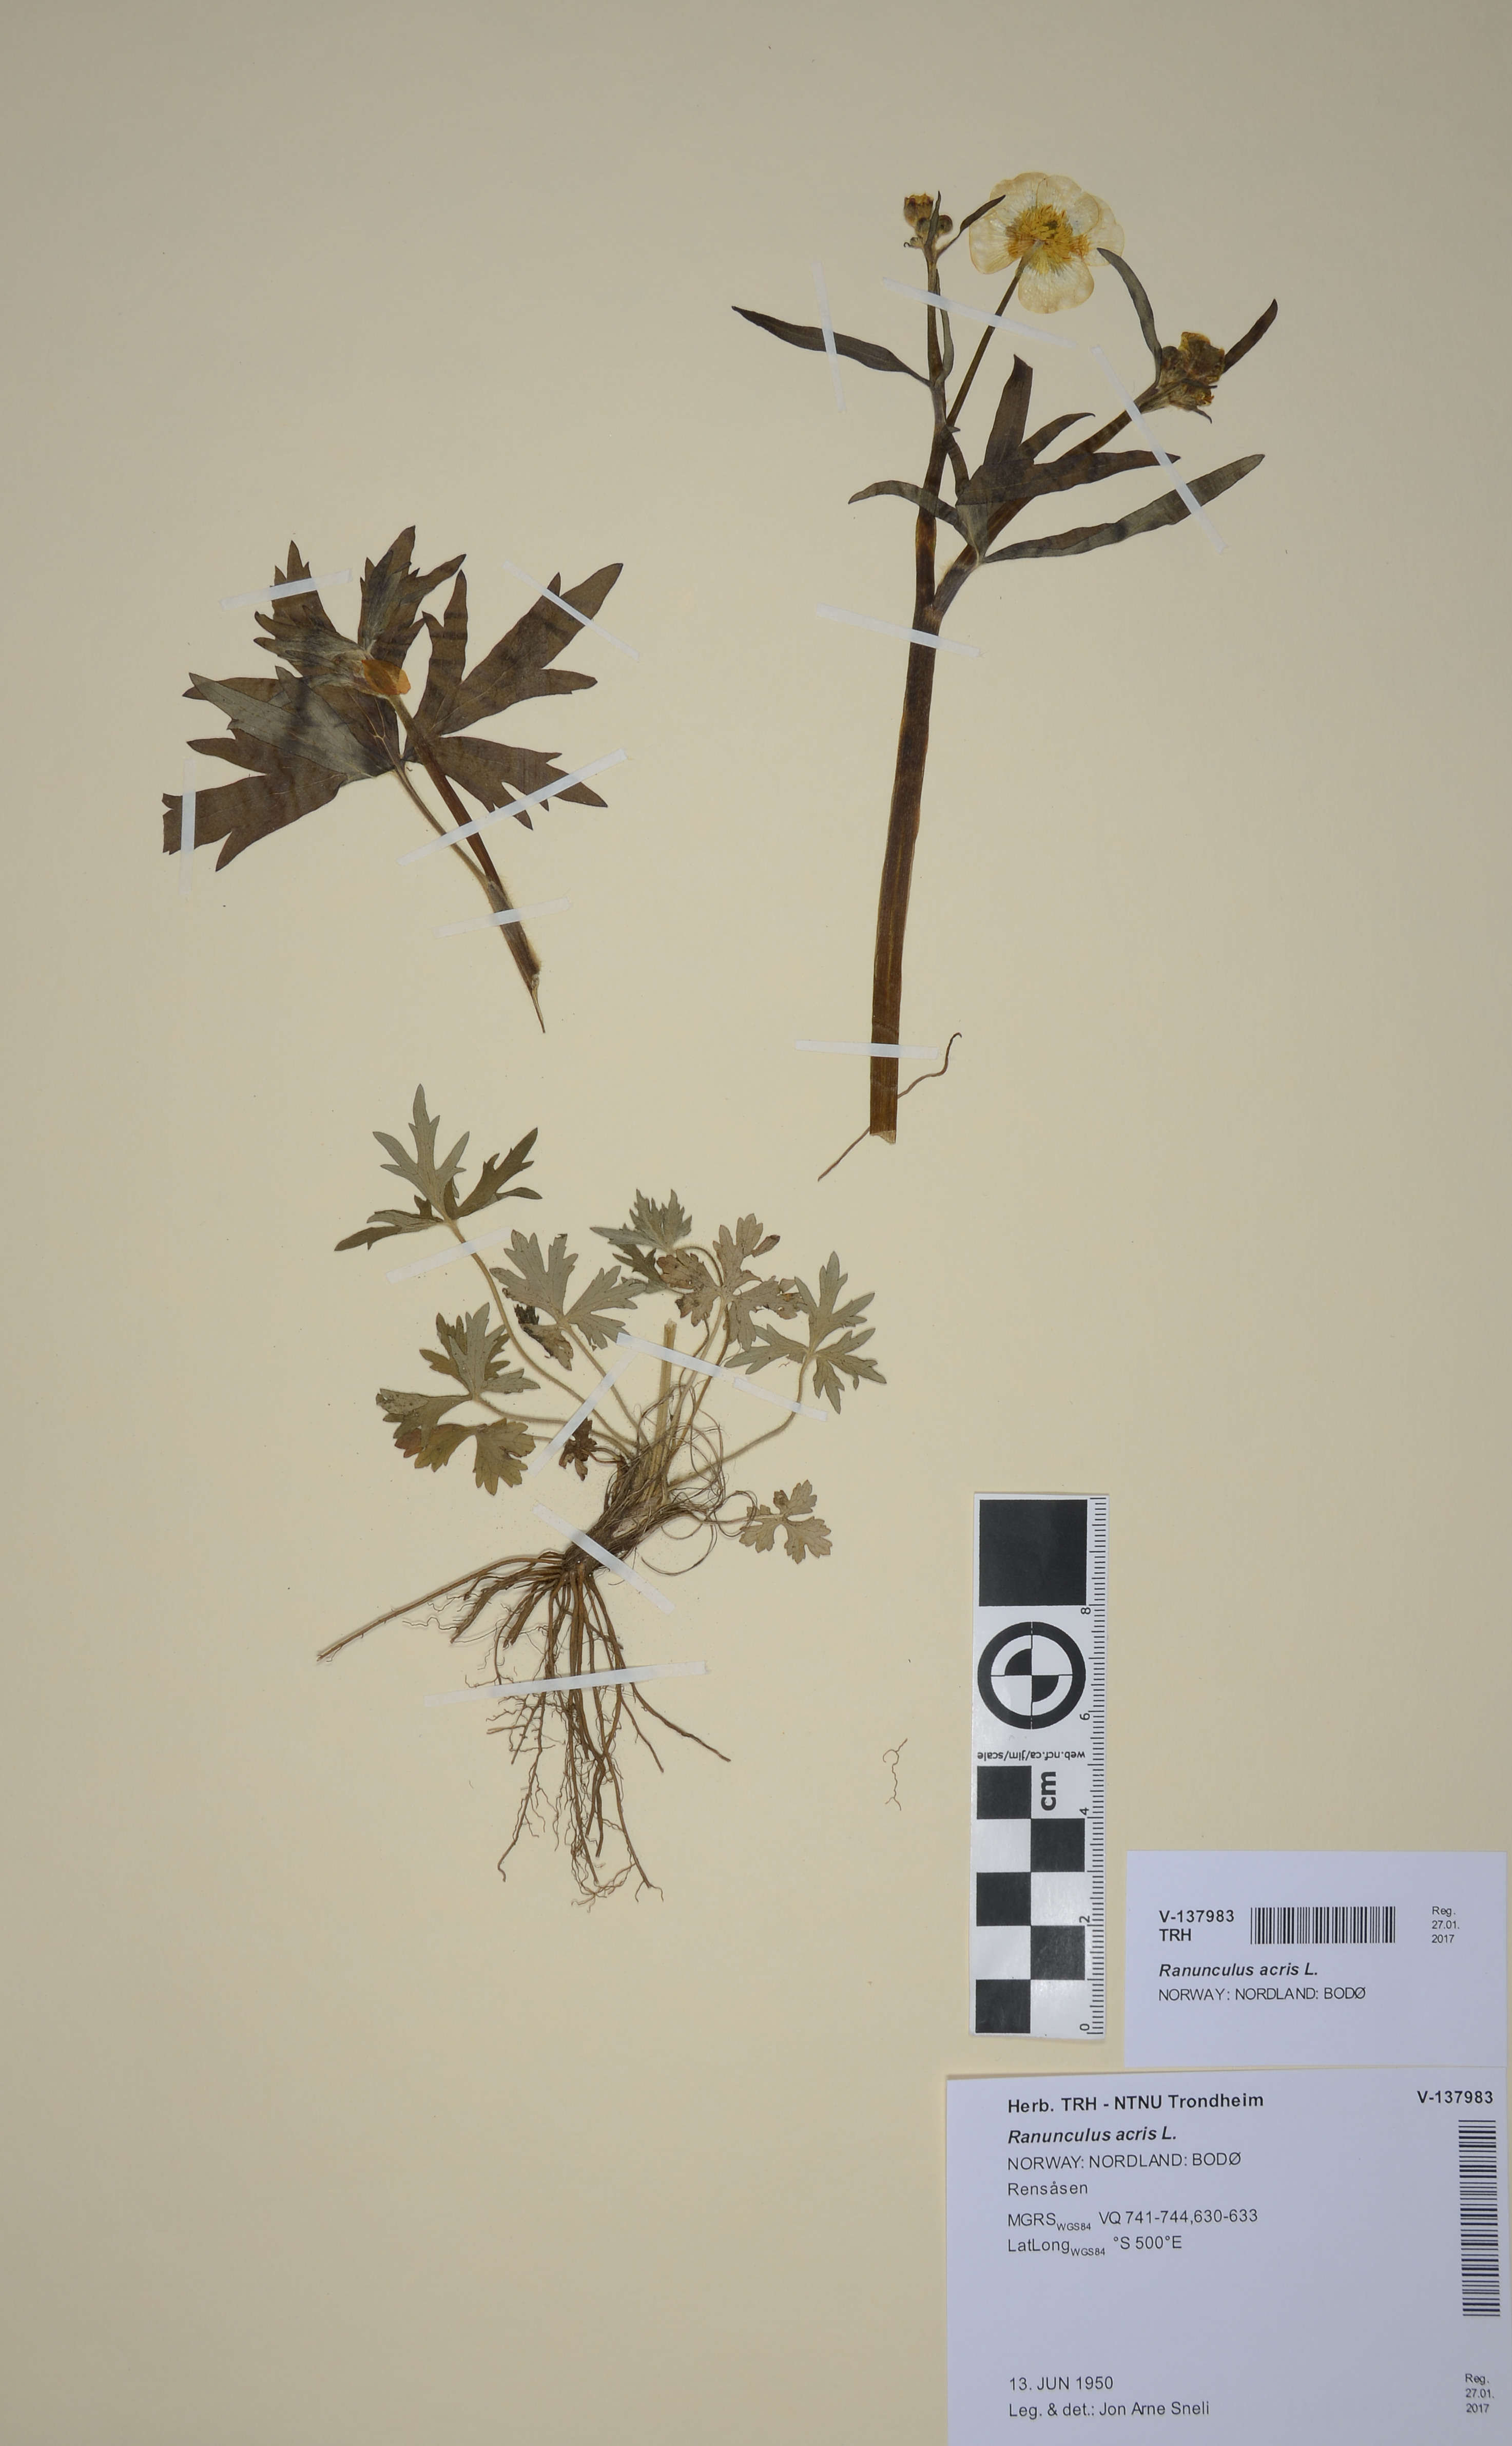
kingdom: Plantae
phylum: Tracheophyta
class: Magnoliopsida
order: Ranunculales
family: Ranunculaceae
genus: Ranunculus
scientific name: Ranunculus acris
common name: Meadow buttercup
